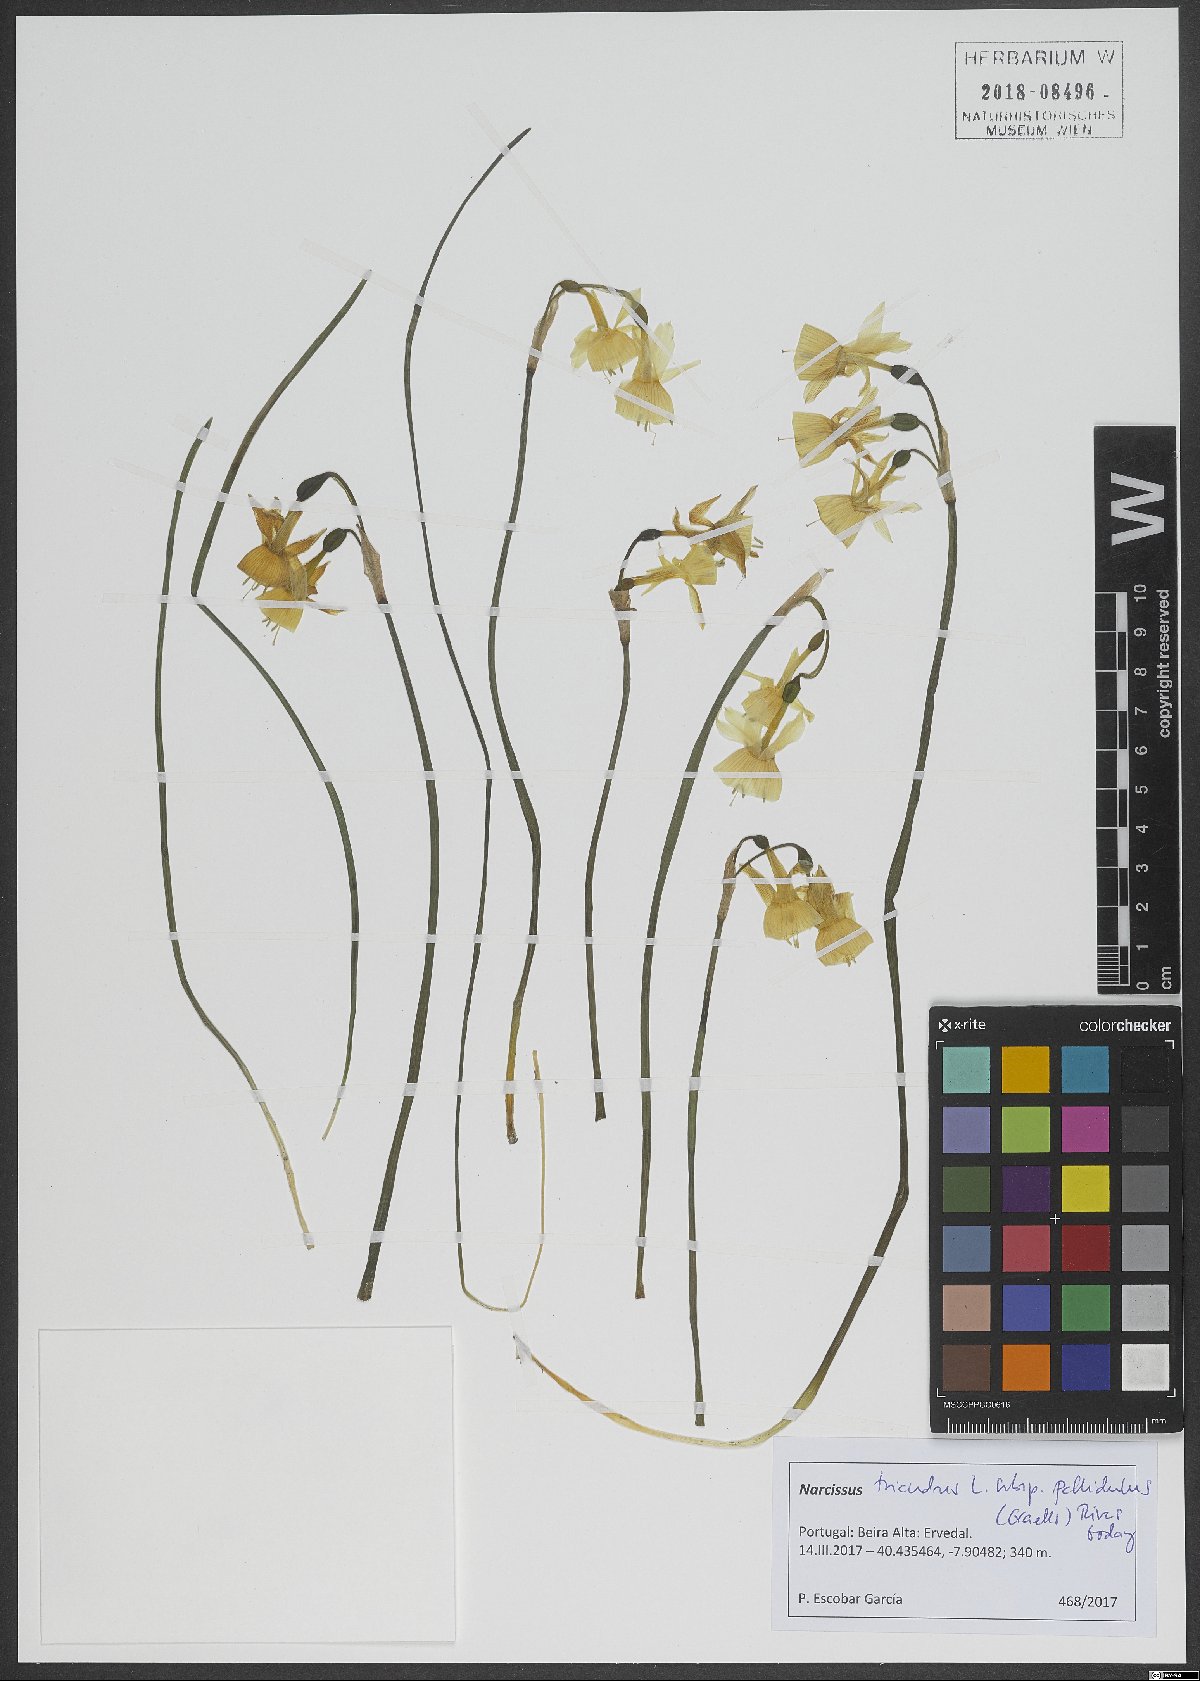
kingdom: Plantae
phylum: Tracheophyta
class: Liliopsida
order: Asparagales
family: Amaryllidaceae
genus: Narcissus
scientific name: Narcissus triandrus
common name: Angel's-tears
